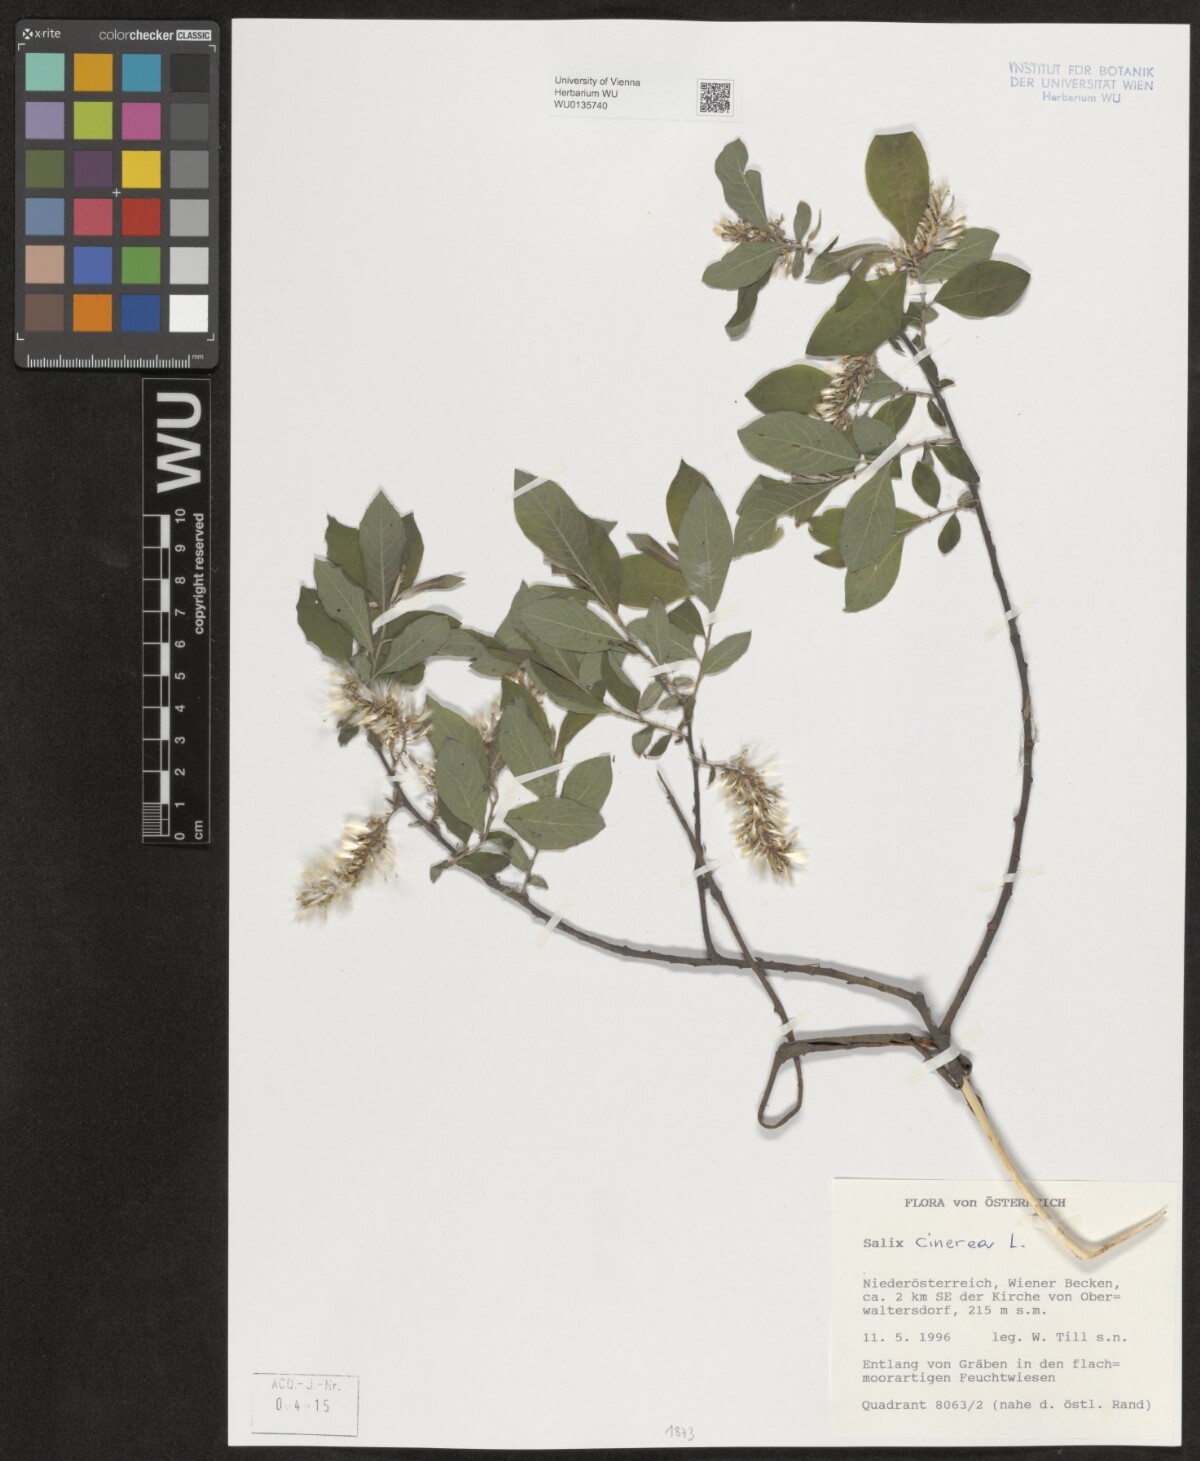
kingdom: Plantae
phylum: Tracheophyta
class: Magnoliopsida
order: Malpighiales
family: Salicaceae
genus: Salix
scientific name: Salix cinerea
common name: Common sallow
